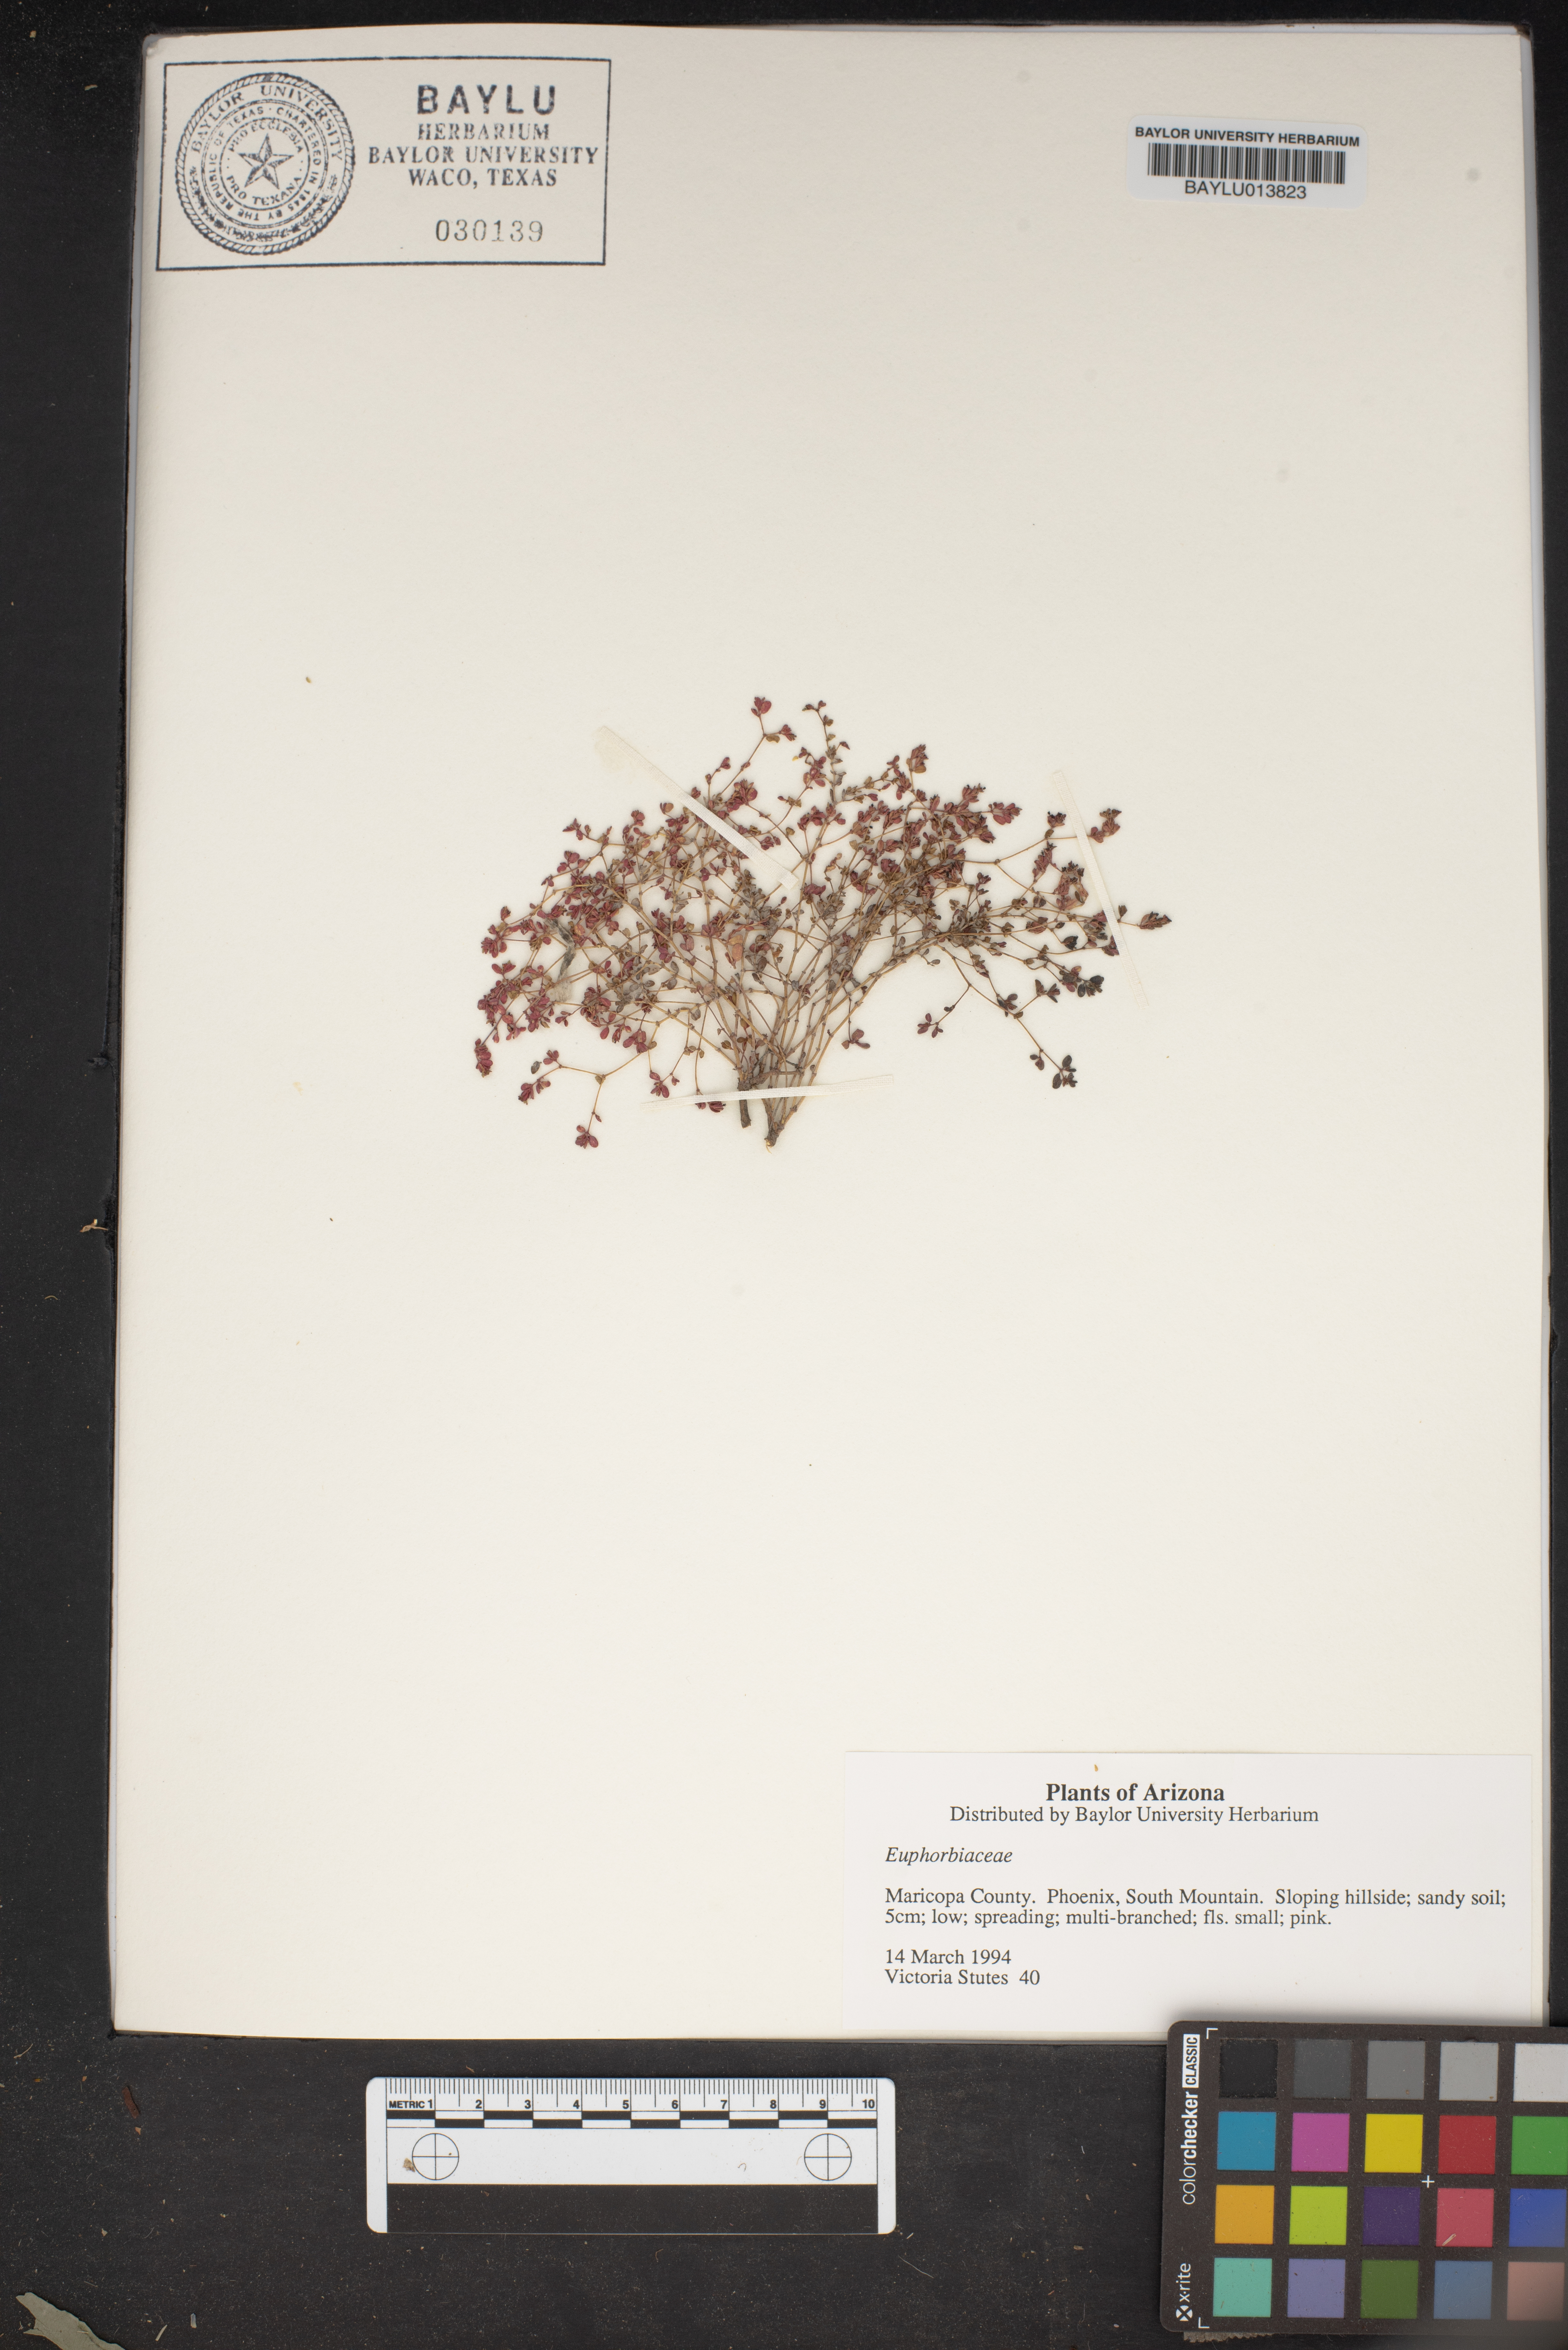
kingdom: Plantae
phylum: Tracheophyta
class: Magnoliopsida
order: Malpighiales
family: Euphorbiaceae
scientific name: Euphorbiaceae
